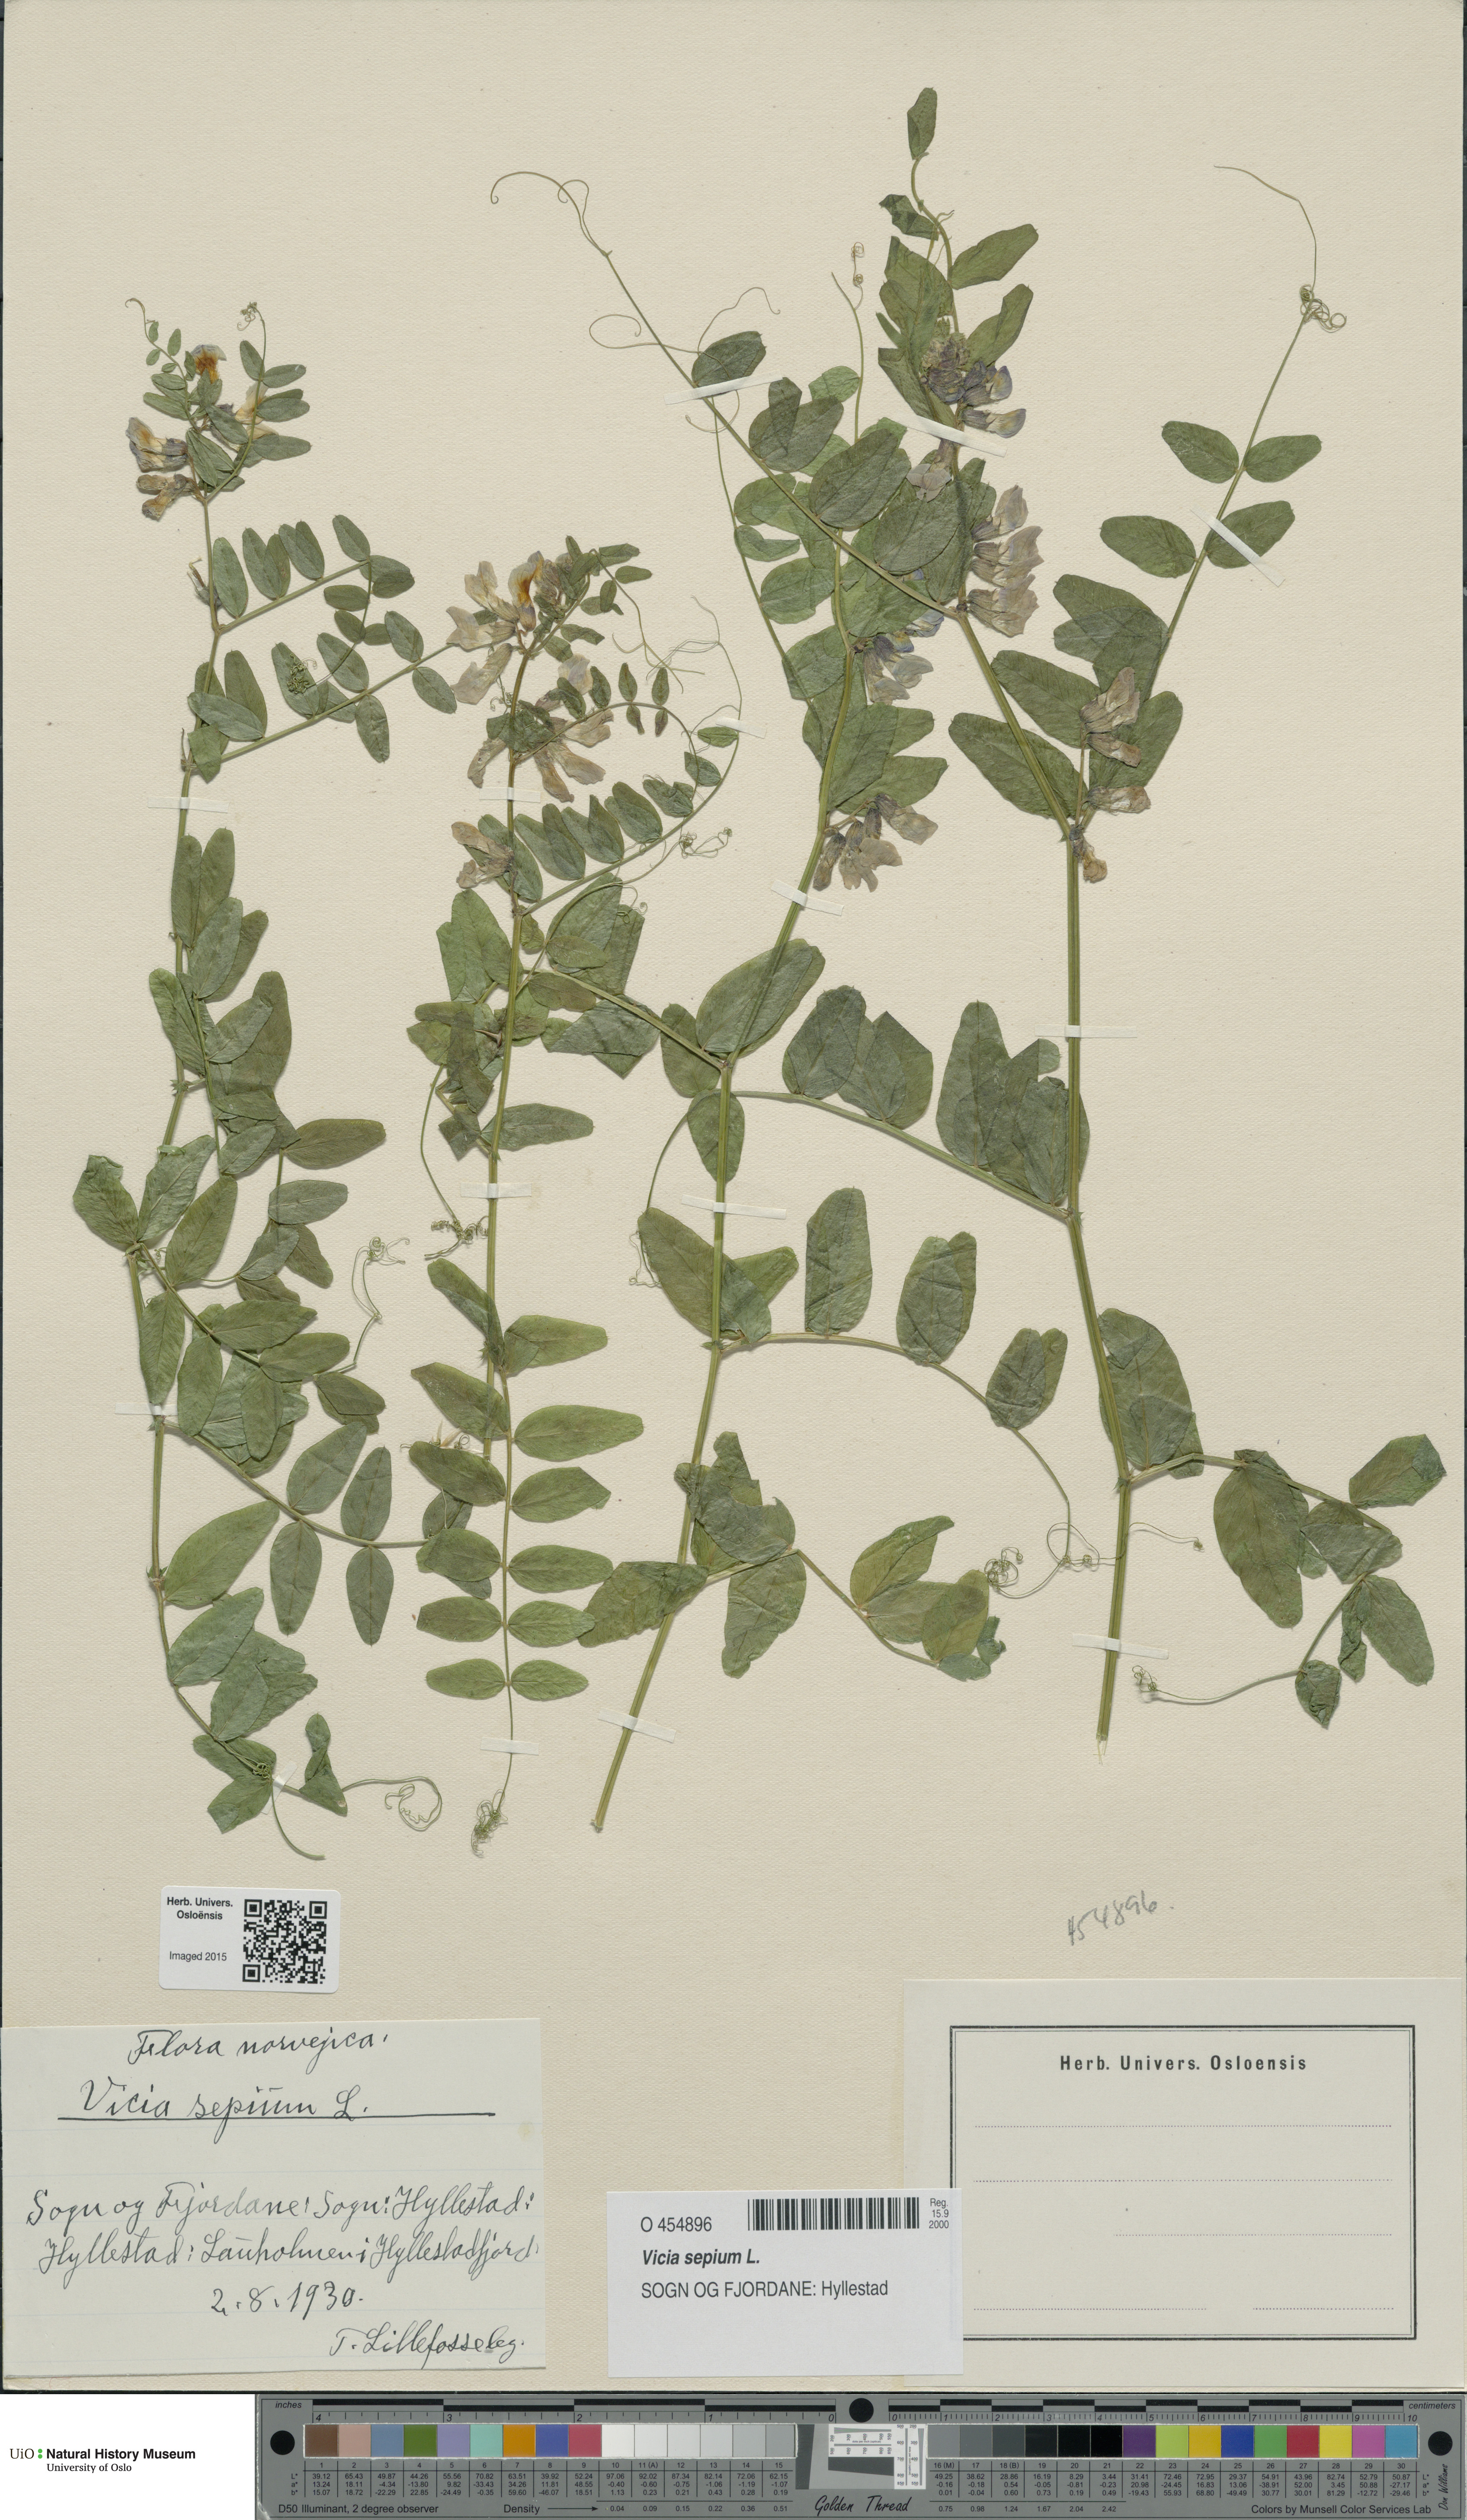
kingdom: Plantae
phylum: Tracheophyta
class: Magnoliopsida
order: Fabales
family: Fabaceae
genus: Vicia
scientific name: Vicia sepium
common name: Bush vetch
